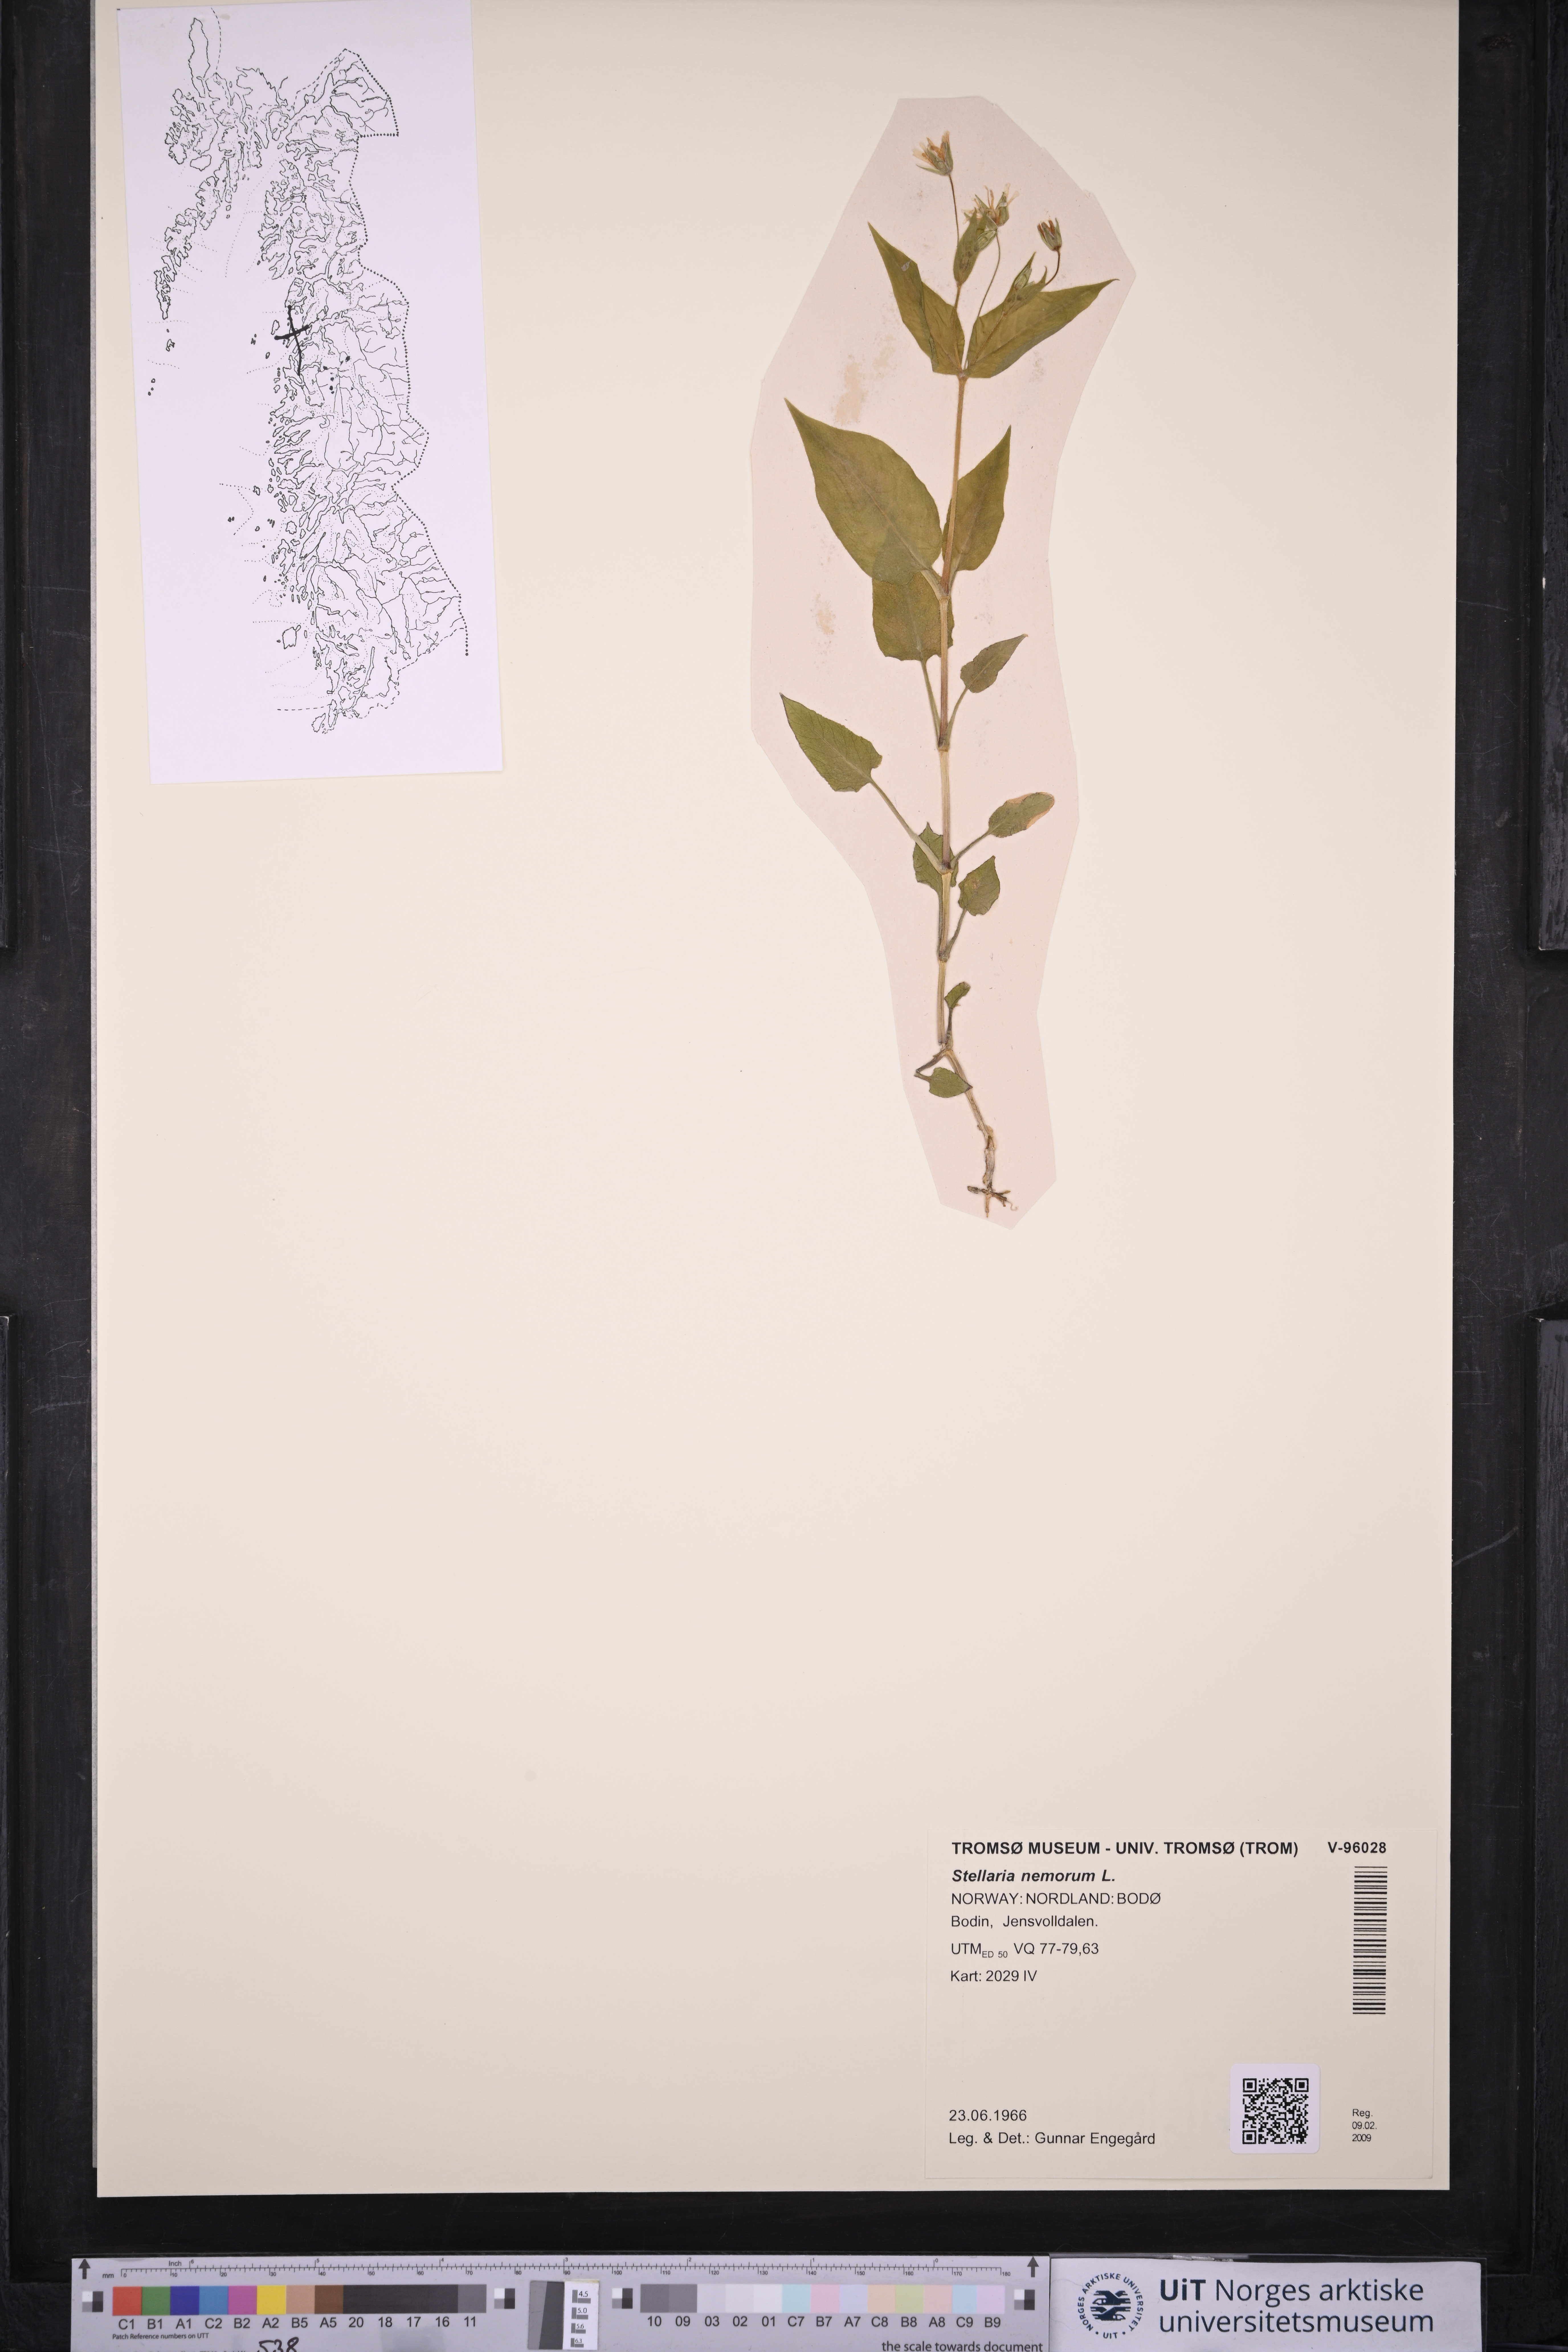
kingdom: Plantae
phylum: Tracheophyta
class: Magnoliopsida
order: Caryophyllales
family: Caryophyllaceae
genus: Stellaria
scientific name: Stellaria nemorum
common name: Wood stitchwort
